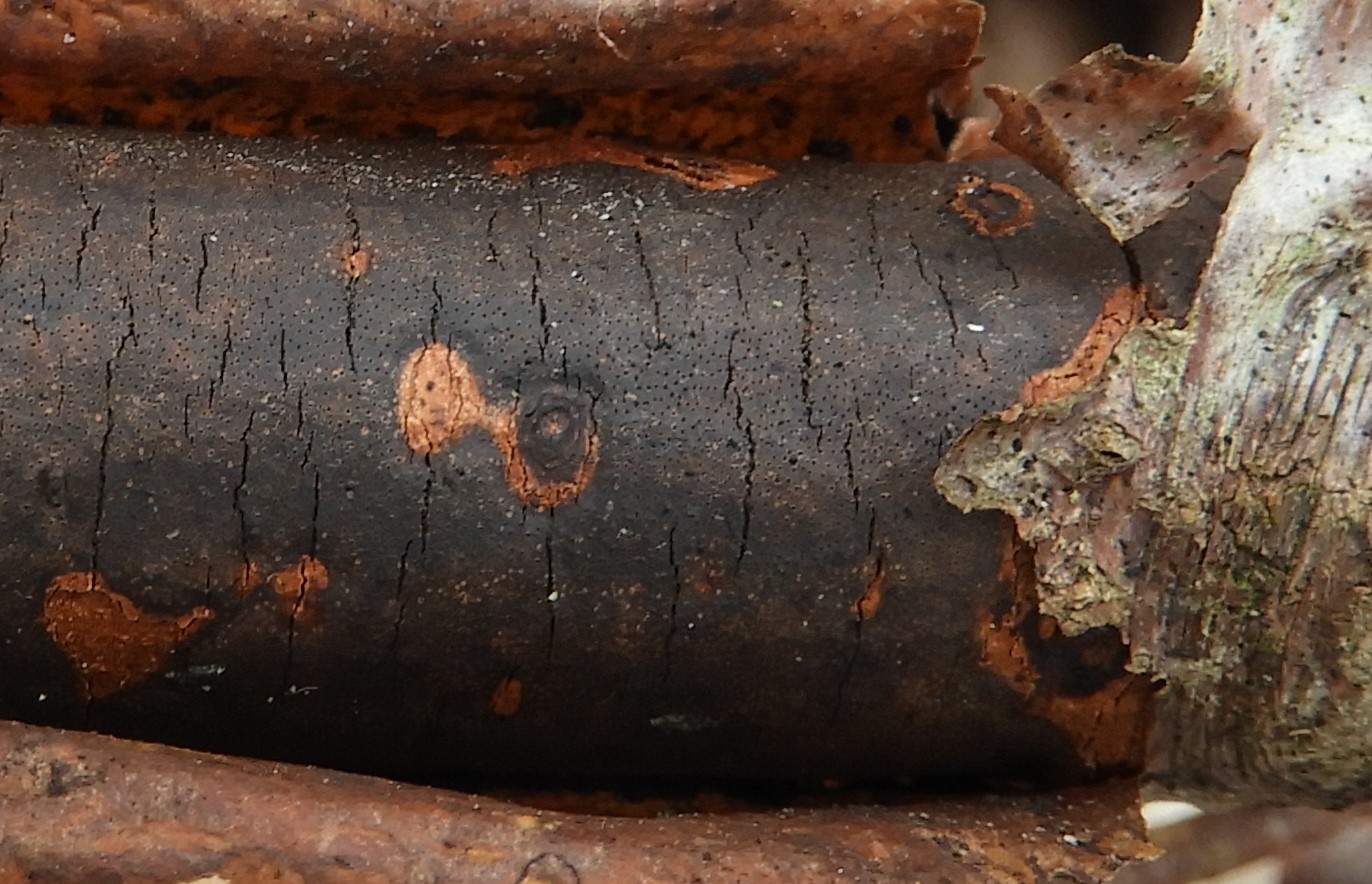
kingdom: Fungi
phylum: Ascomycota
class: Sordariomycetes
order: Xylariales
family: Diatrypaceae
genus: Diatrype
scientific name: Diatrype decorticata
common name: barksprænger-kulskorpe
